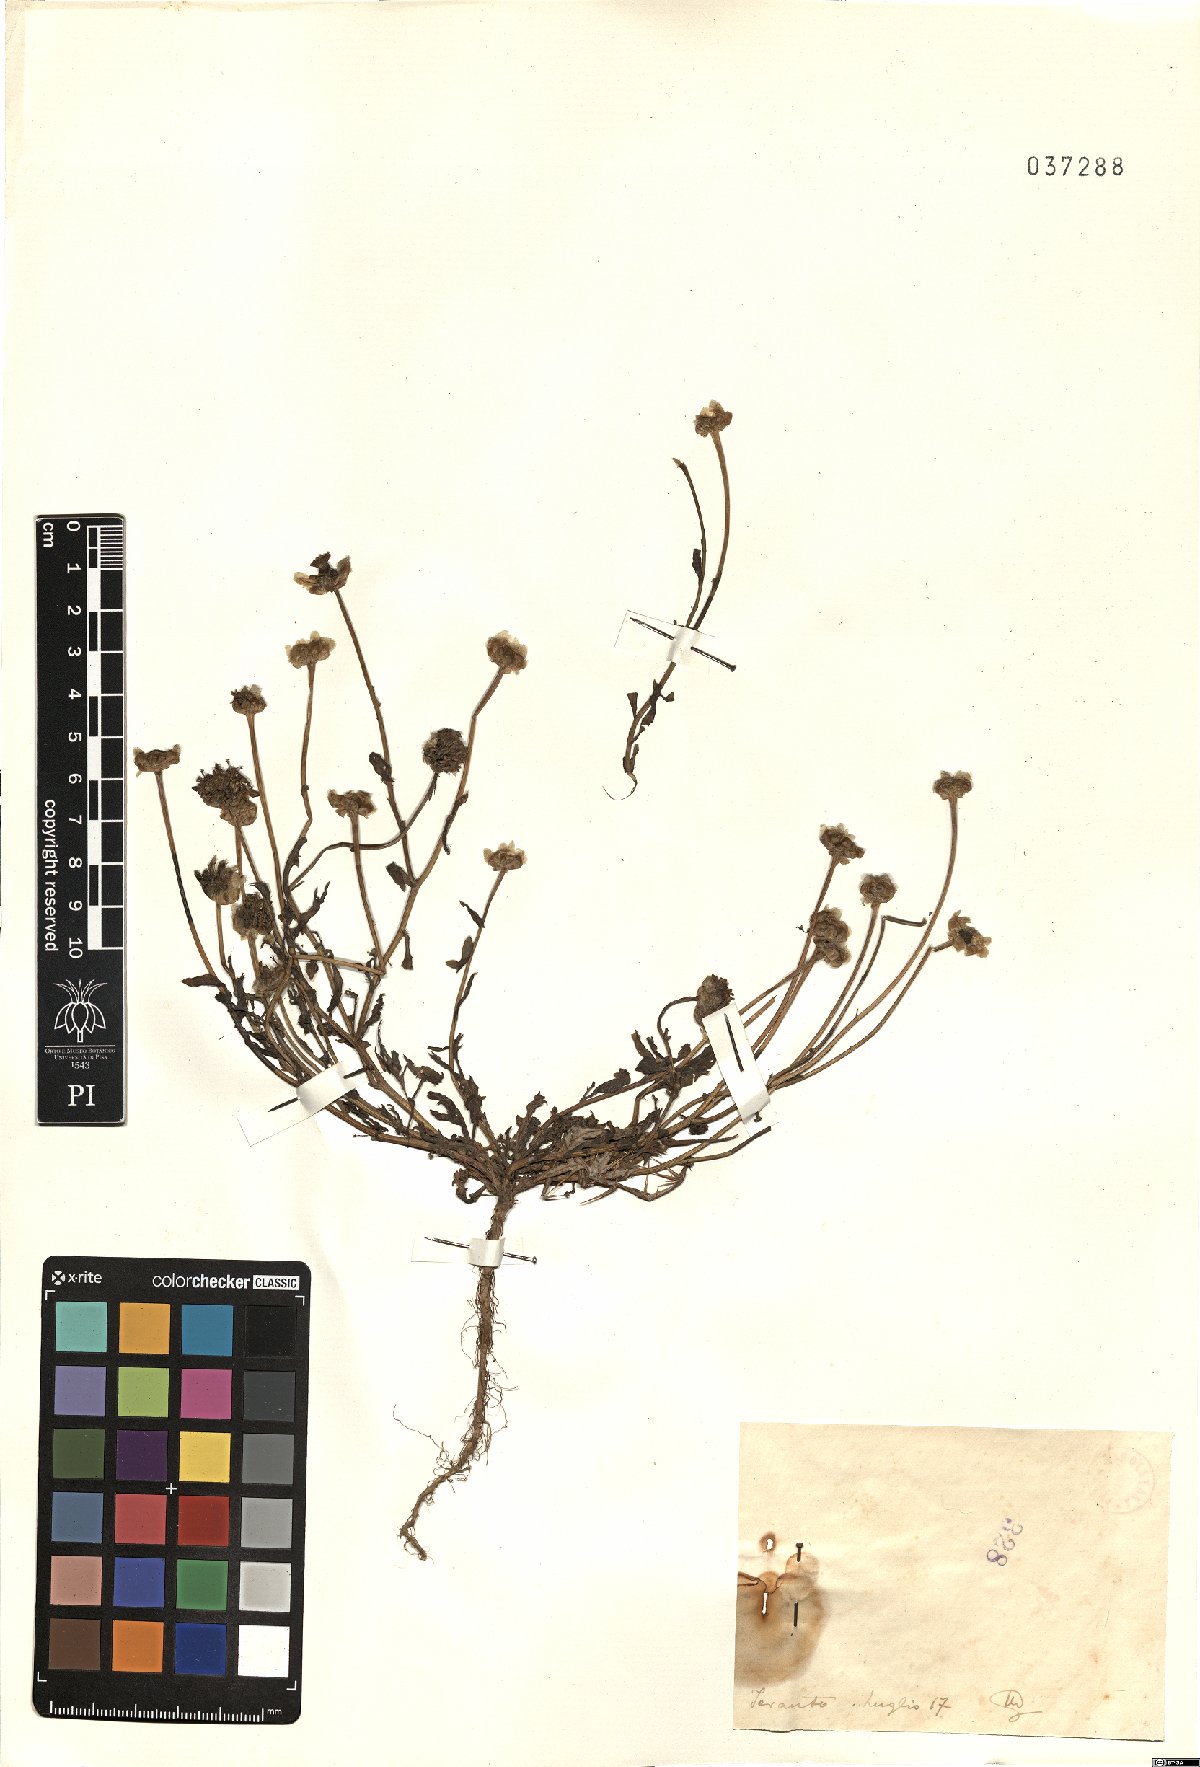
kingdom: Plantae
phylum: Tracheophyta
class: Magnoliopsida
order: Asterales
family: Asteraceae
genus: Anthemis
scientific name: Anthemis
